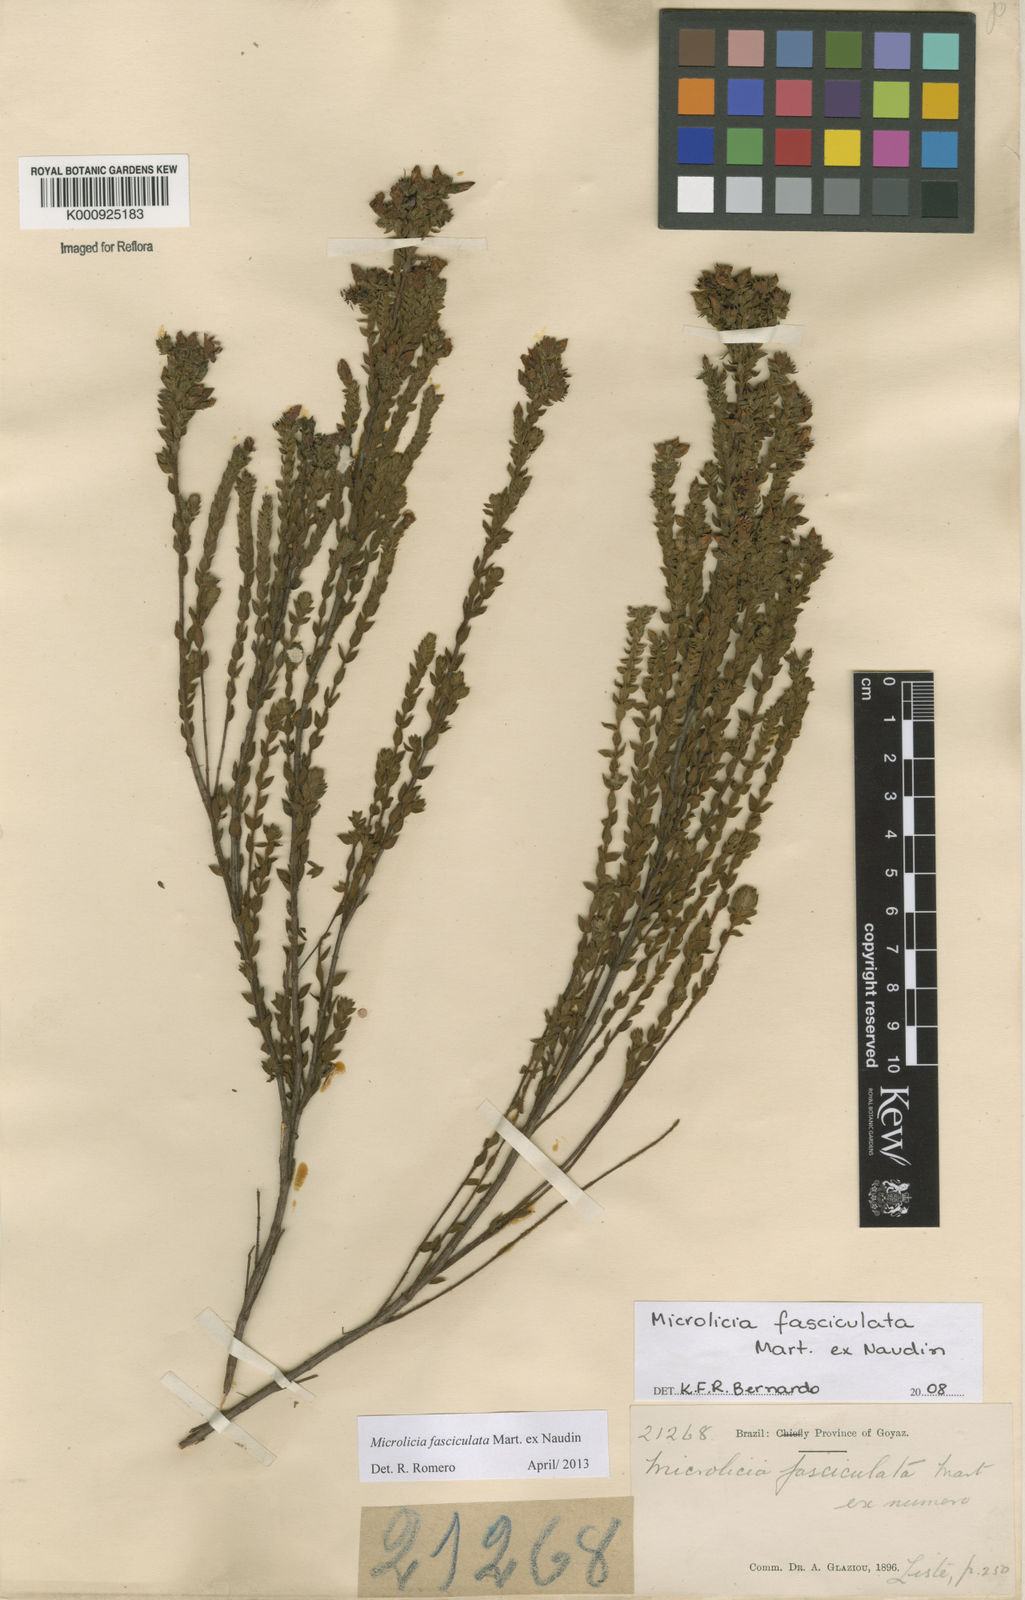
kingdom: Plantae
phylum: Tracheophyta
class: Magnoliopsida
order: Myrtales
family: Melastomataceae
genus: Microlicia
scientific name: Microlicia fasciculata
